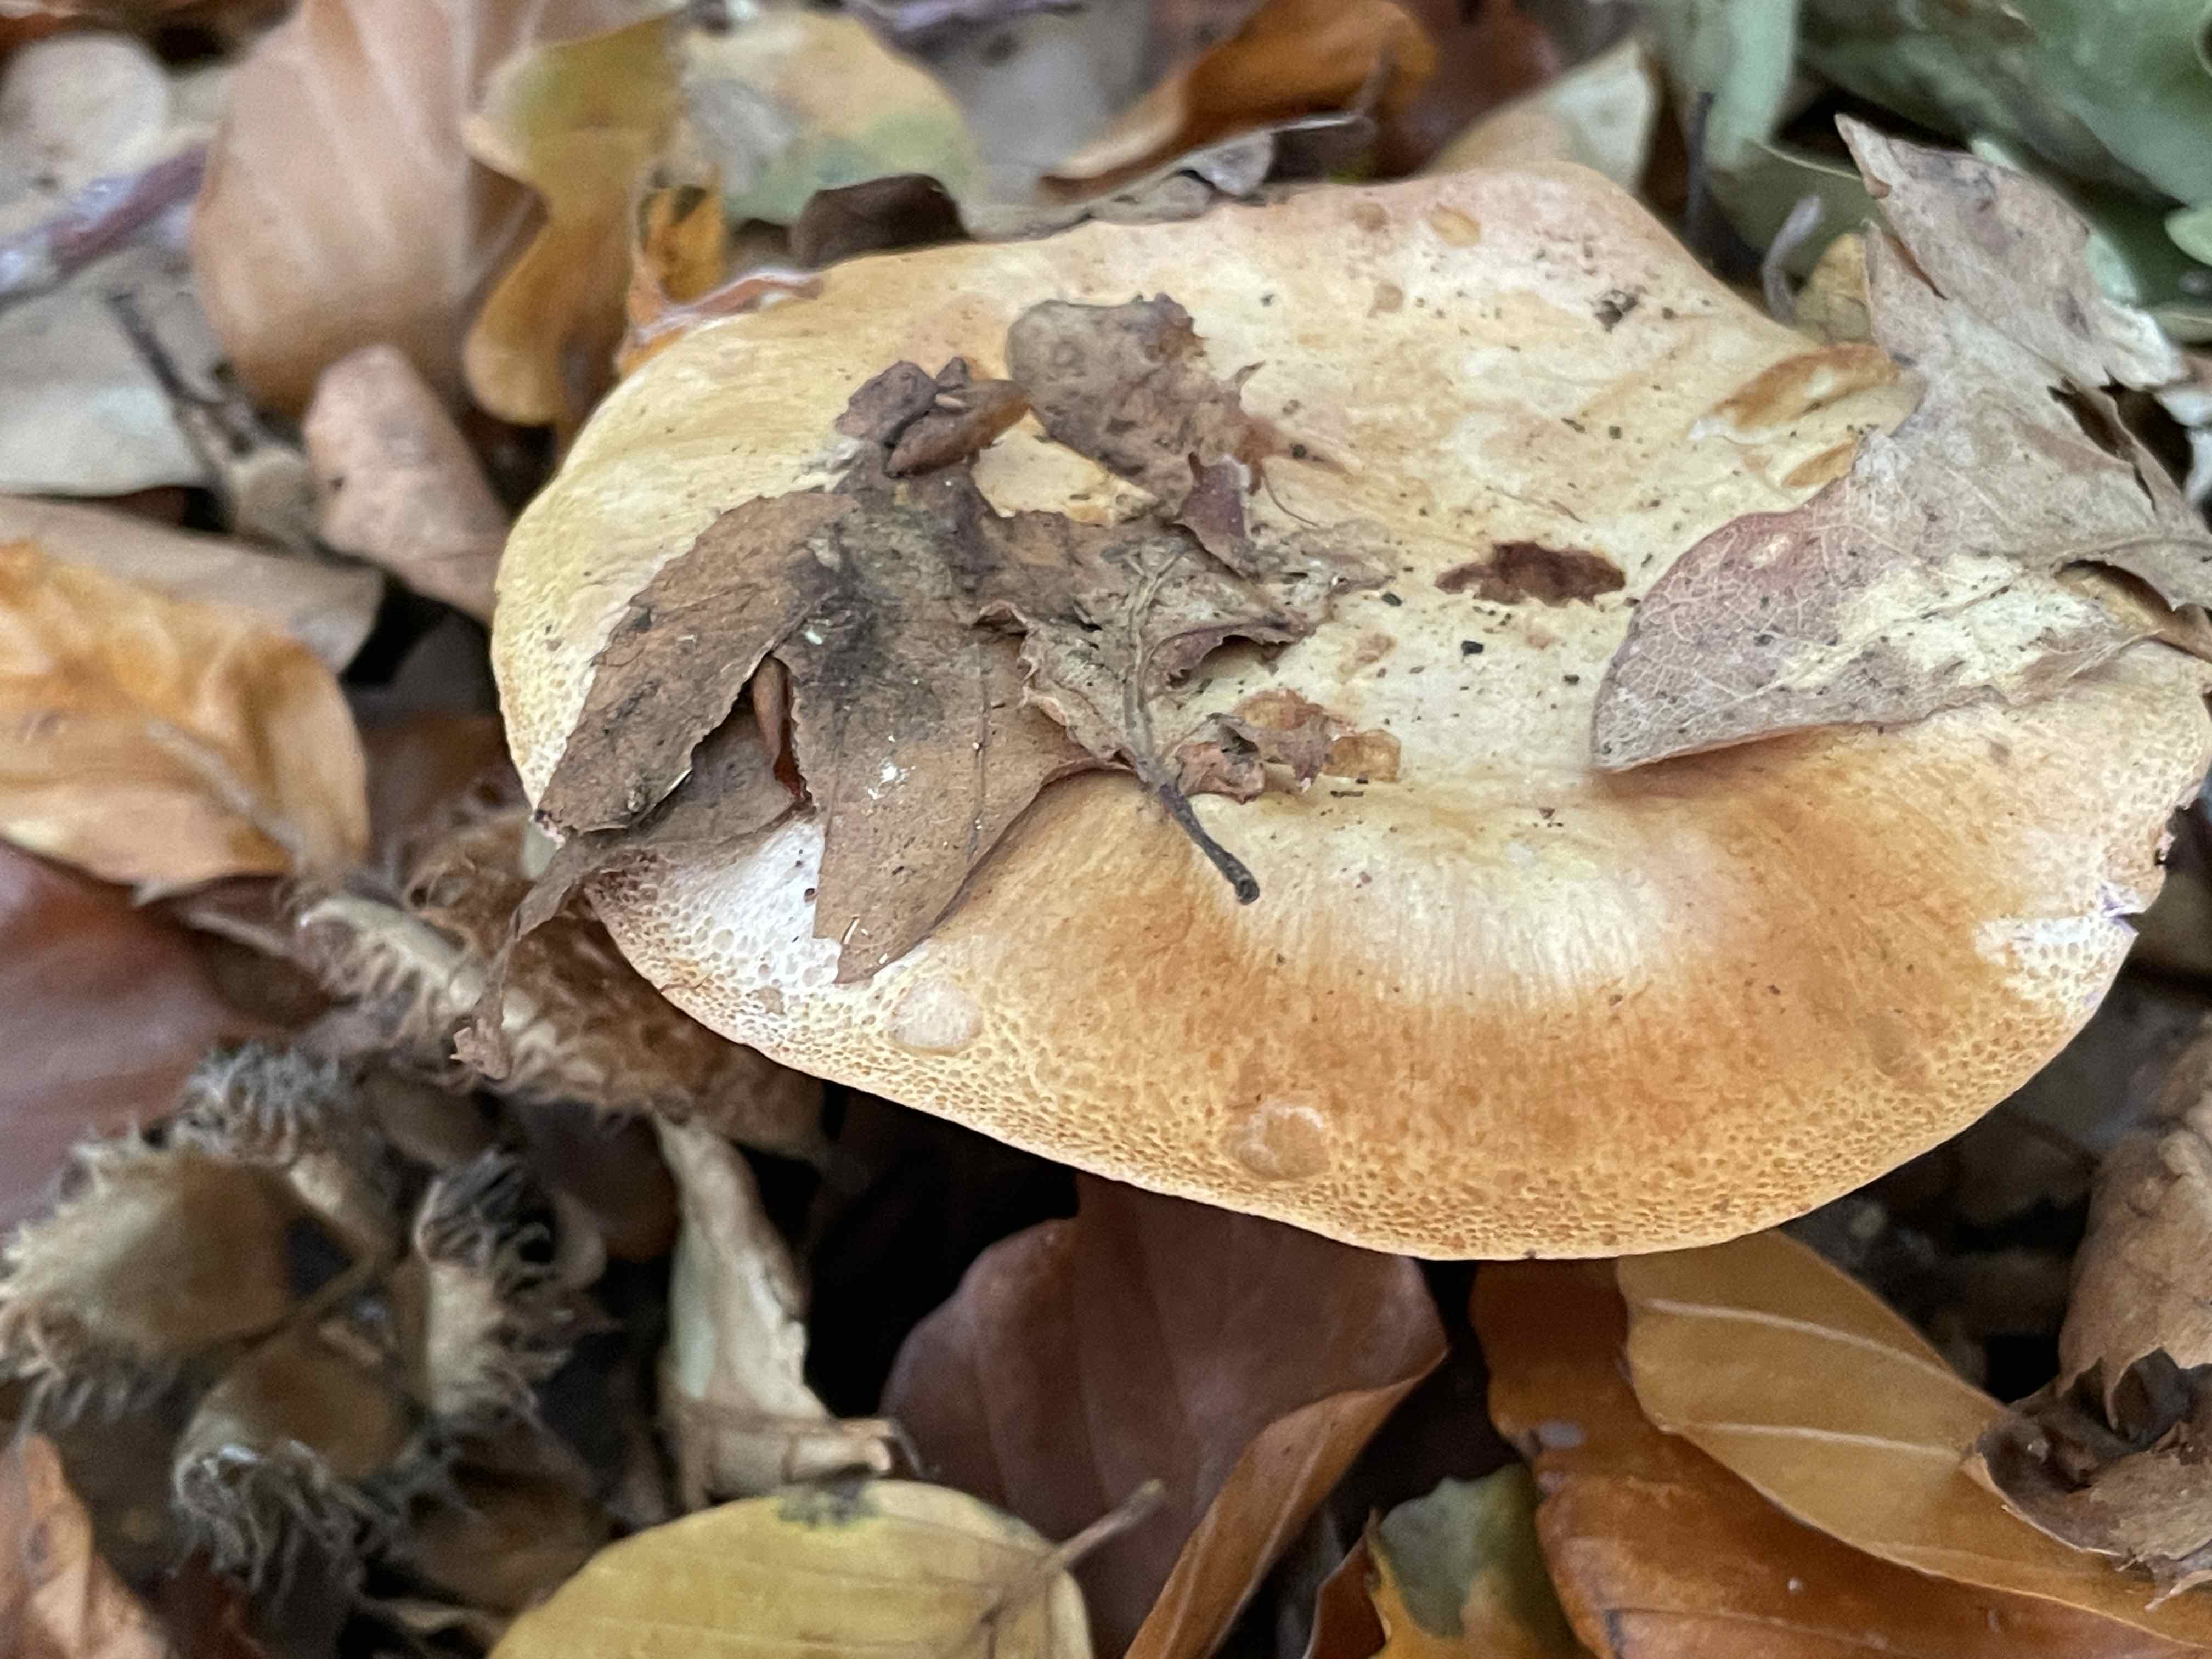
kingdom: Fungi
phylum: Basidiomycota
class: Agaricomycetes
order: Agaricales
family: Cortinariaceae
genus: Cortinarius
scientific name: Cortinarius largus
